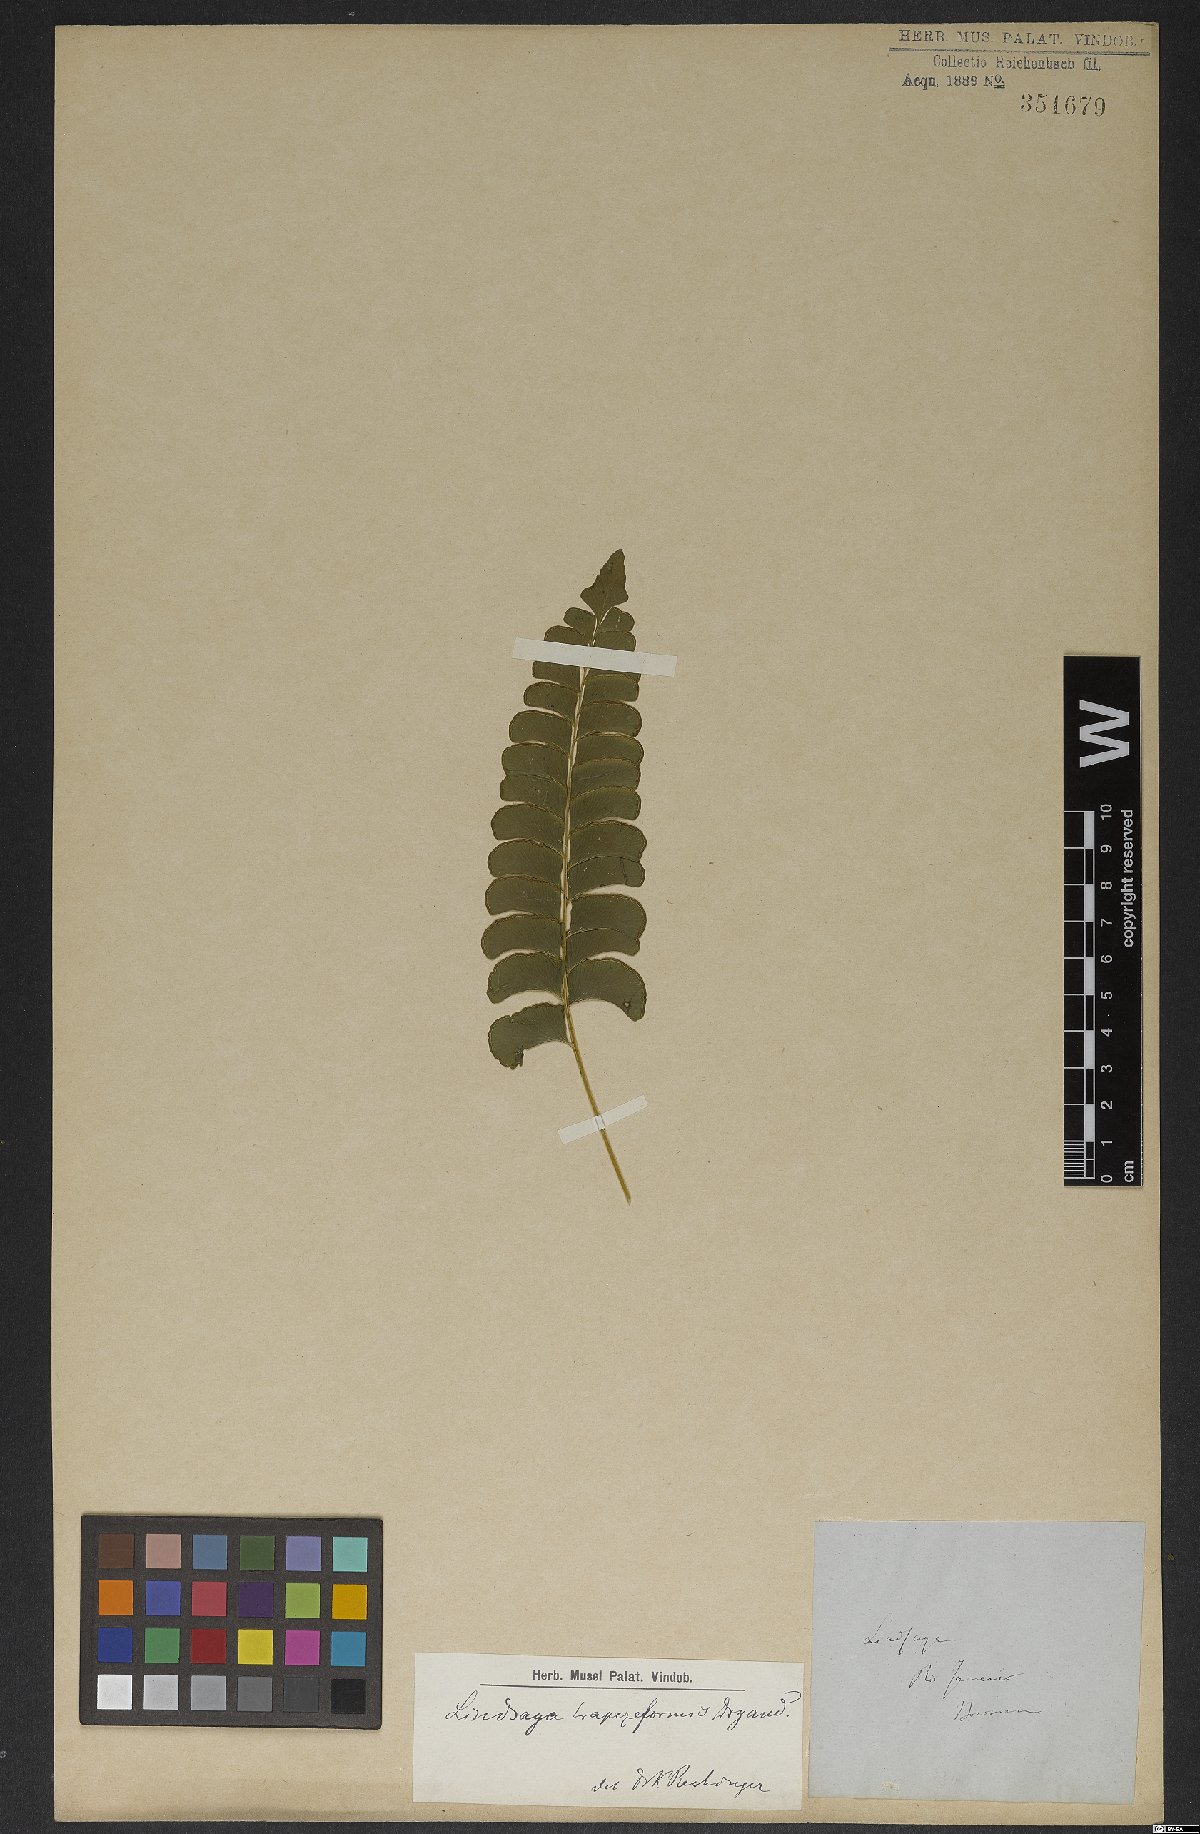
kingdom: Plantae
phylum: Tracheophyta
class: Polypodiopsida
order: Polypodiales
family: Lindsaeaceae
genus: Lindsaea
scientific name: Lindsaea lancea
